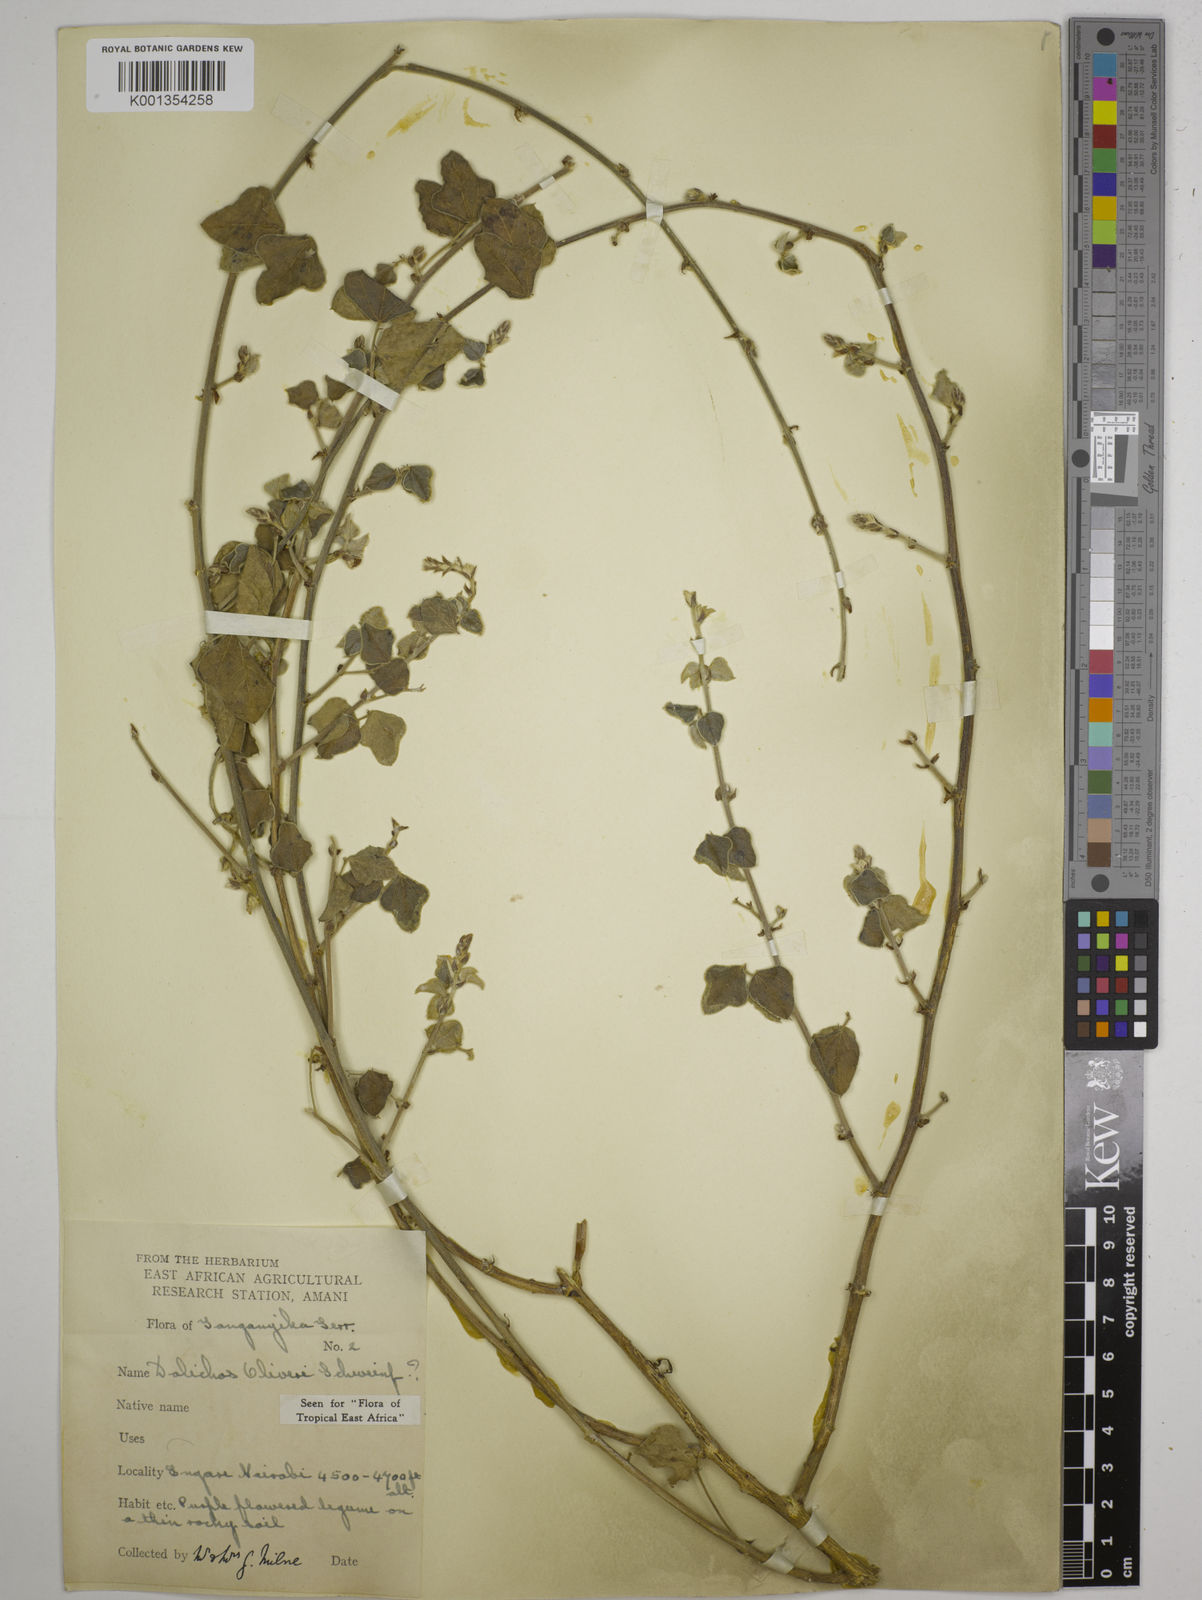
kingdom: Plantae
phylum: Tracheophyta
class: Magnoliopsida
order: Fabales
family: Fabaceae
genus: Dolichos
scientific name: Dolichos
